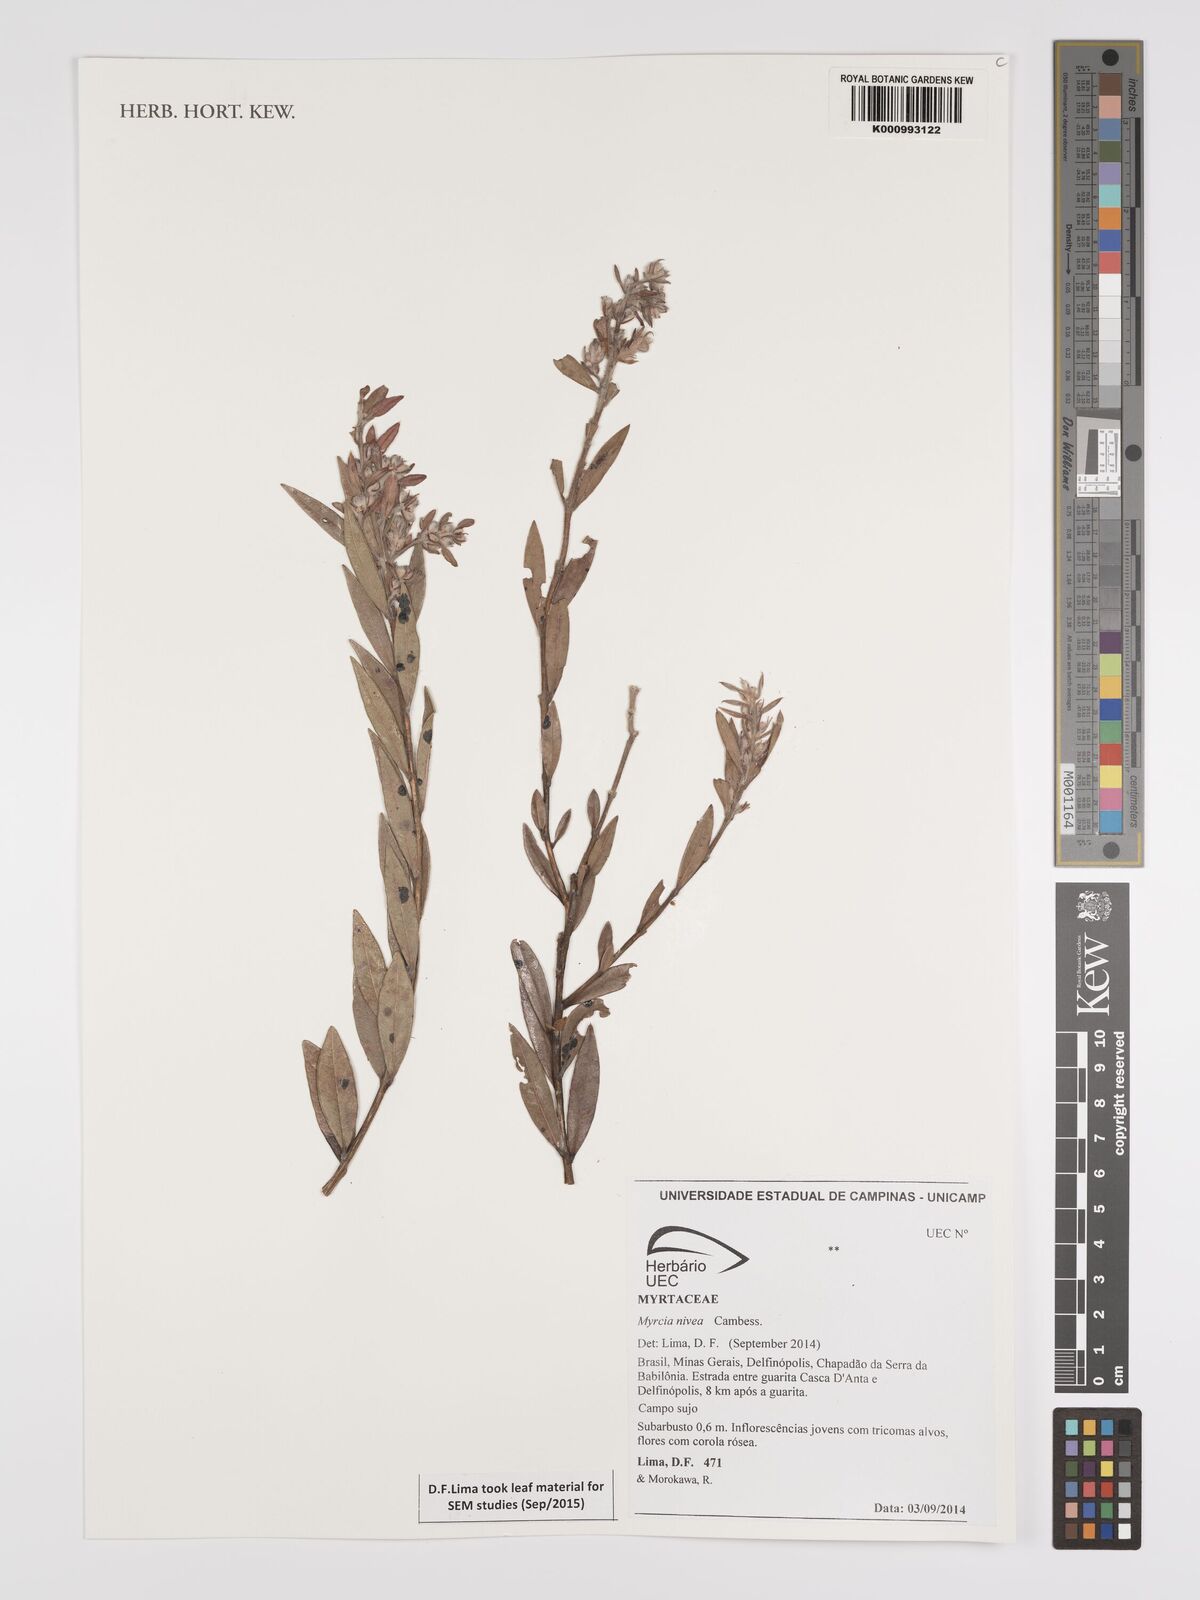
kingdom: Plantae
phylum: Tracheophyta
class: Magnoliopsida
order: Myrtales
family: Myrtaceae
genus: Myrcia
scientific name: Myrcia nivea
